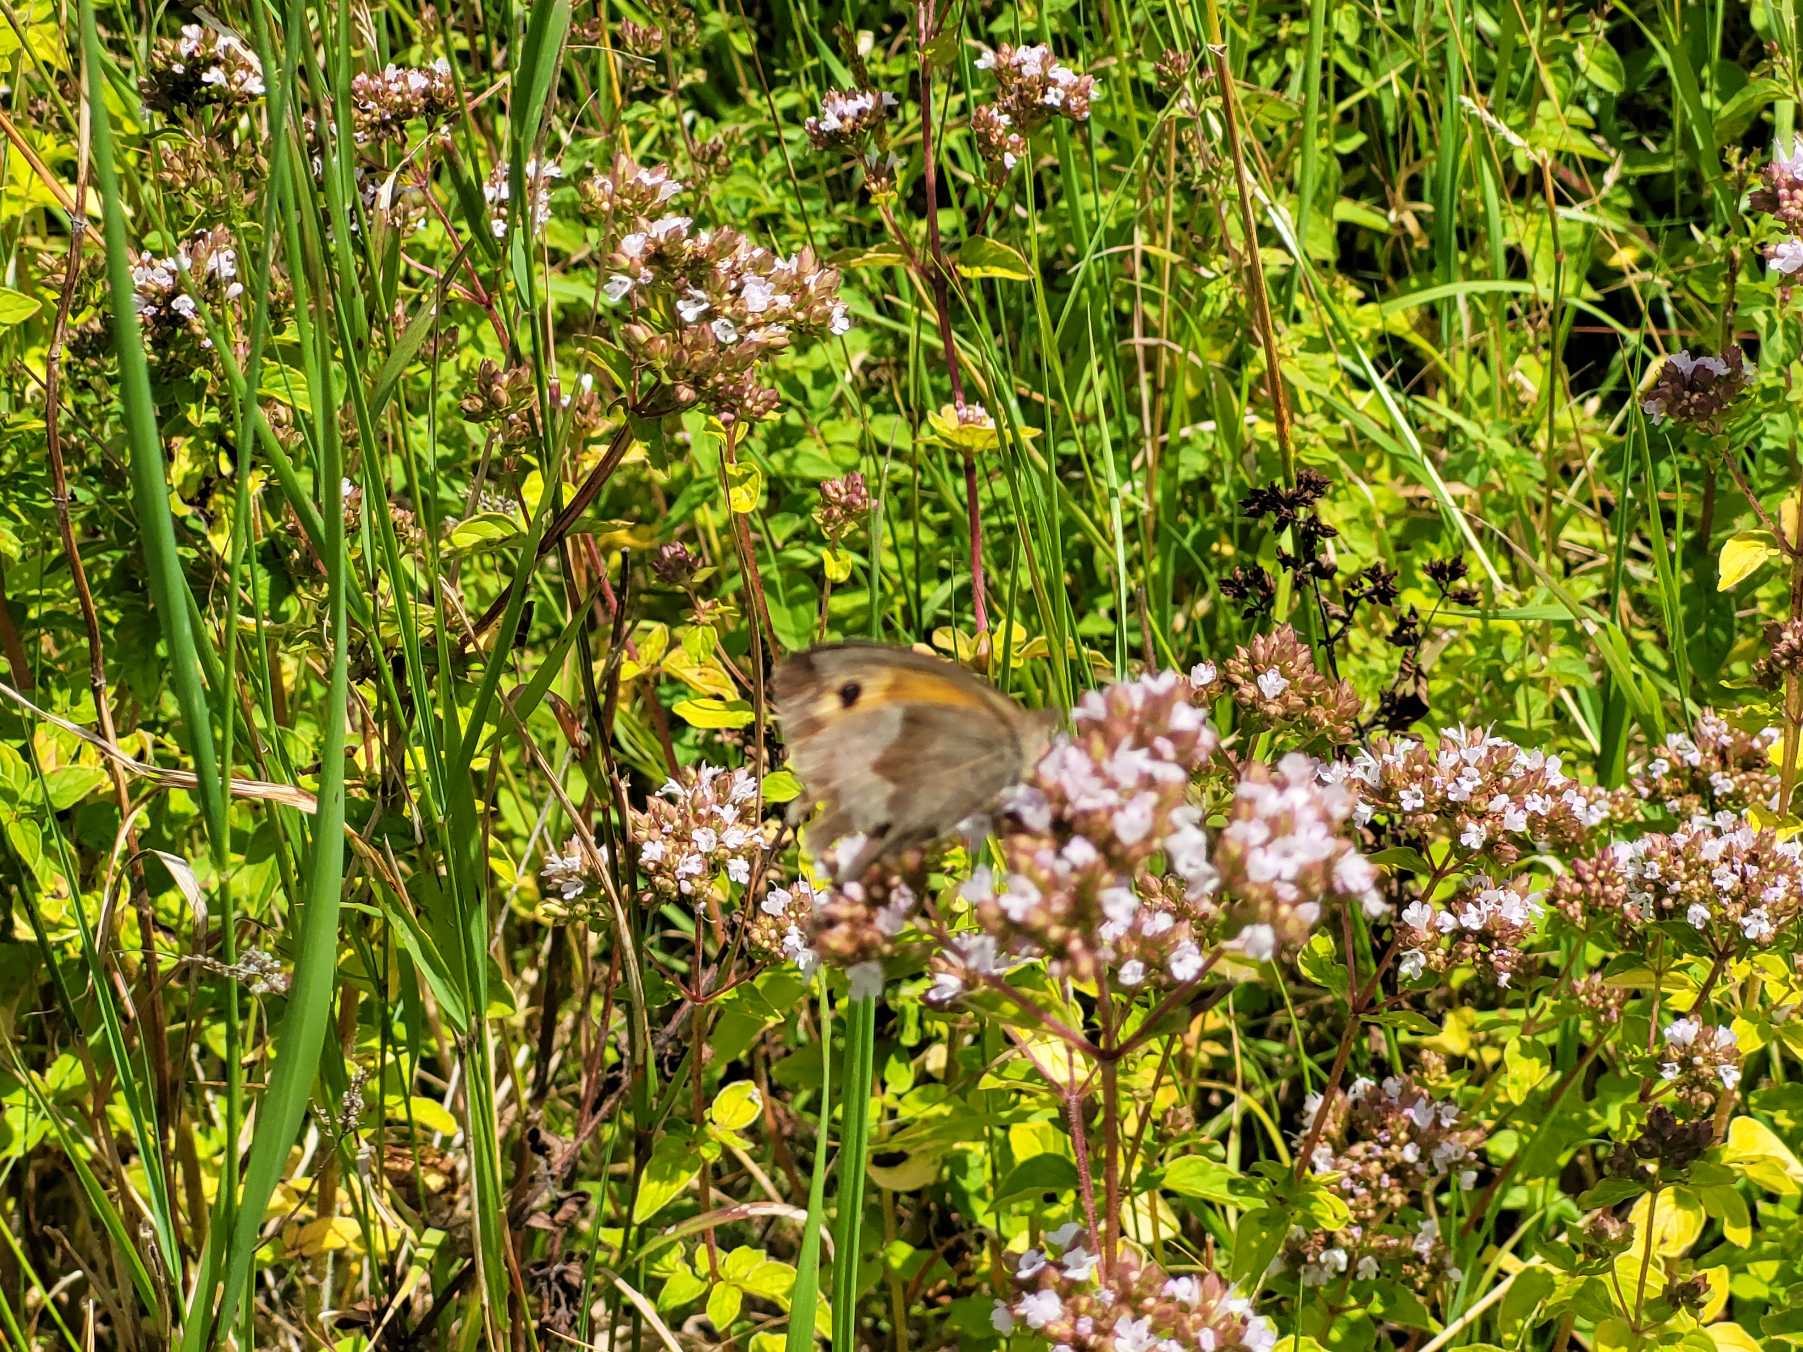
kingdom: Animalia
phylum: Arthropoda
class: Insecta
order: Lepidoptera
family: Nymphalidae
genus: Maniola
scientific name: Maniola jurtina
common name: Græsrandøje
